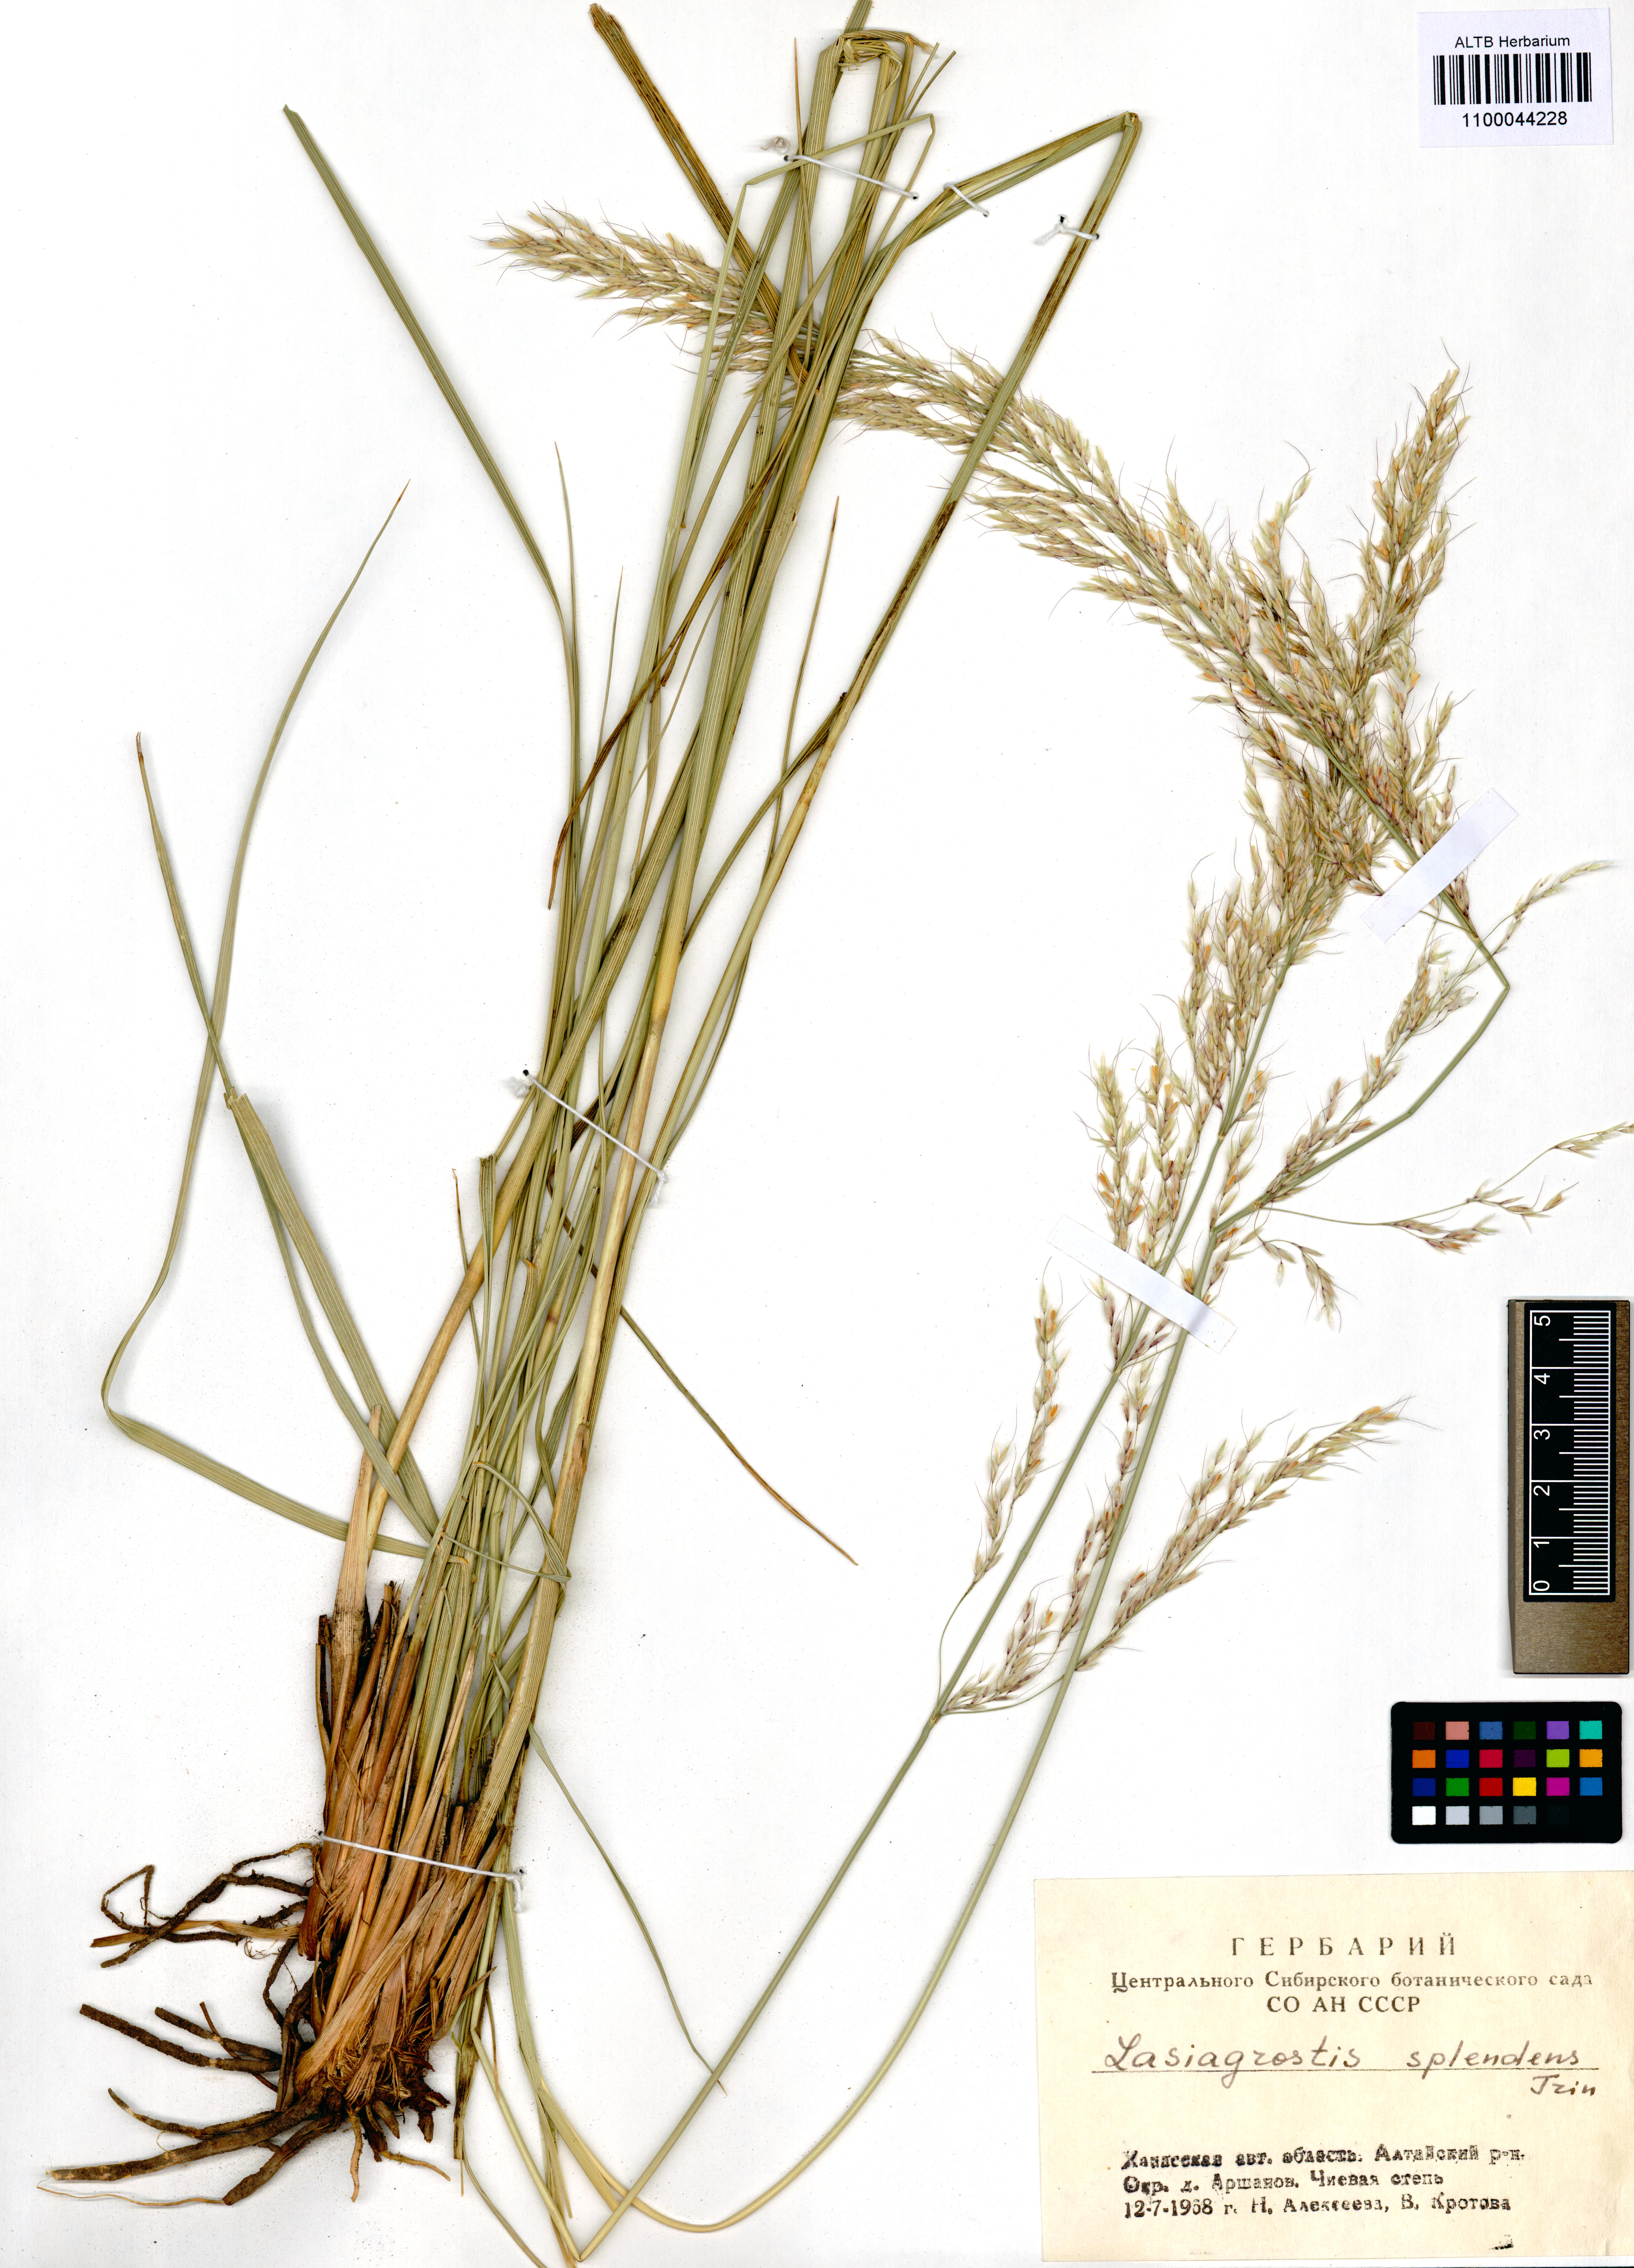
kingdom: Plantae
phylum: Tracheophyta
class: Liliopsida
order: Poales
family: Poaceae
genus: Neotrinia
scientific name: Neotrinia splendens
